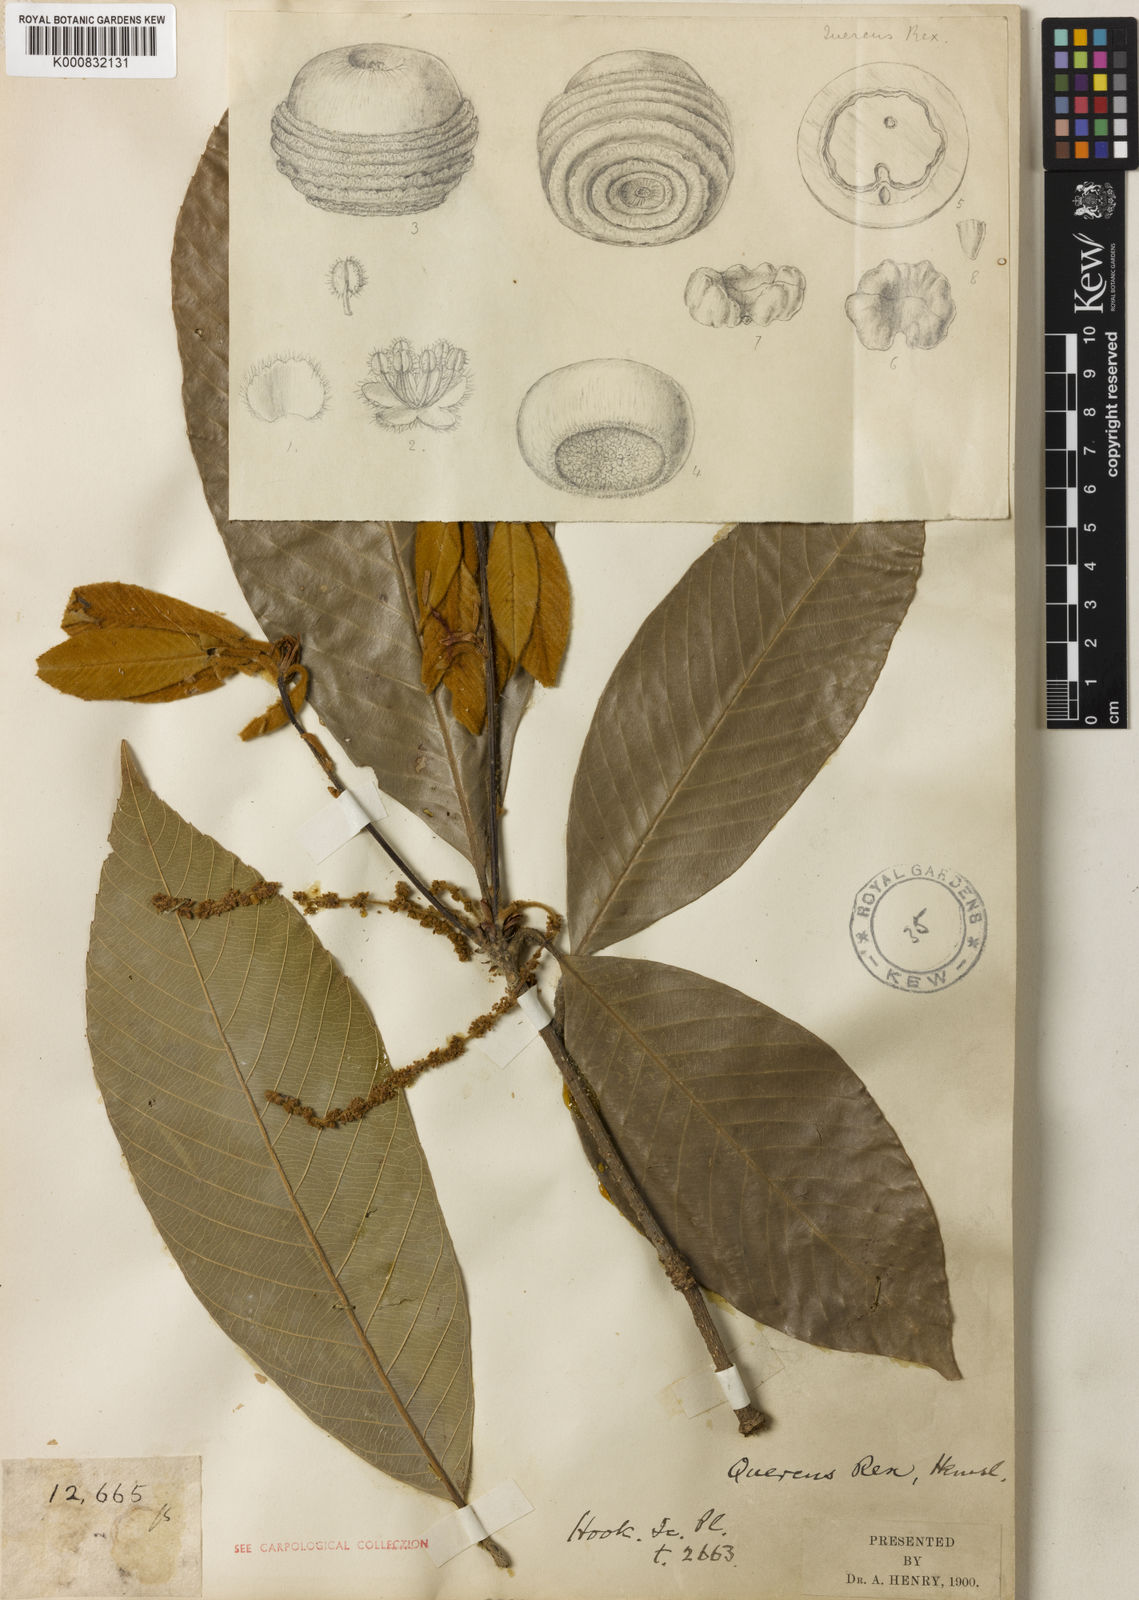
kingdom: Plantae
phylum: Tracheophyta
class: Magnoliopsida
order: Fagales
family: Fagaceae
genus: Quercus
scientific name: Quercus rex
